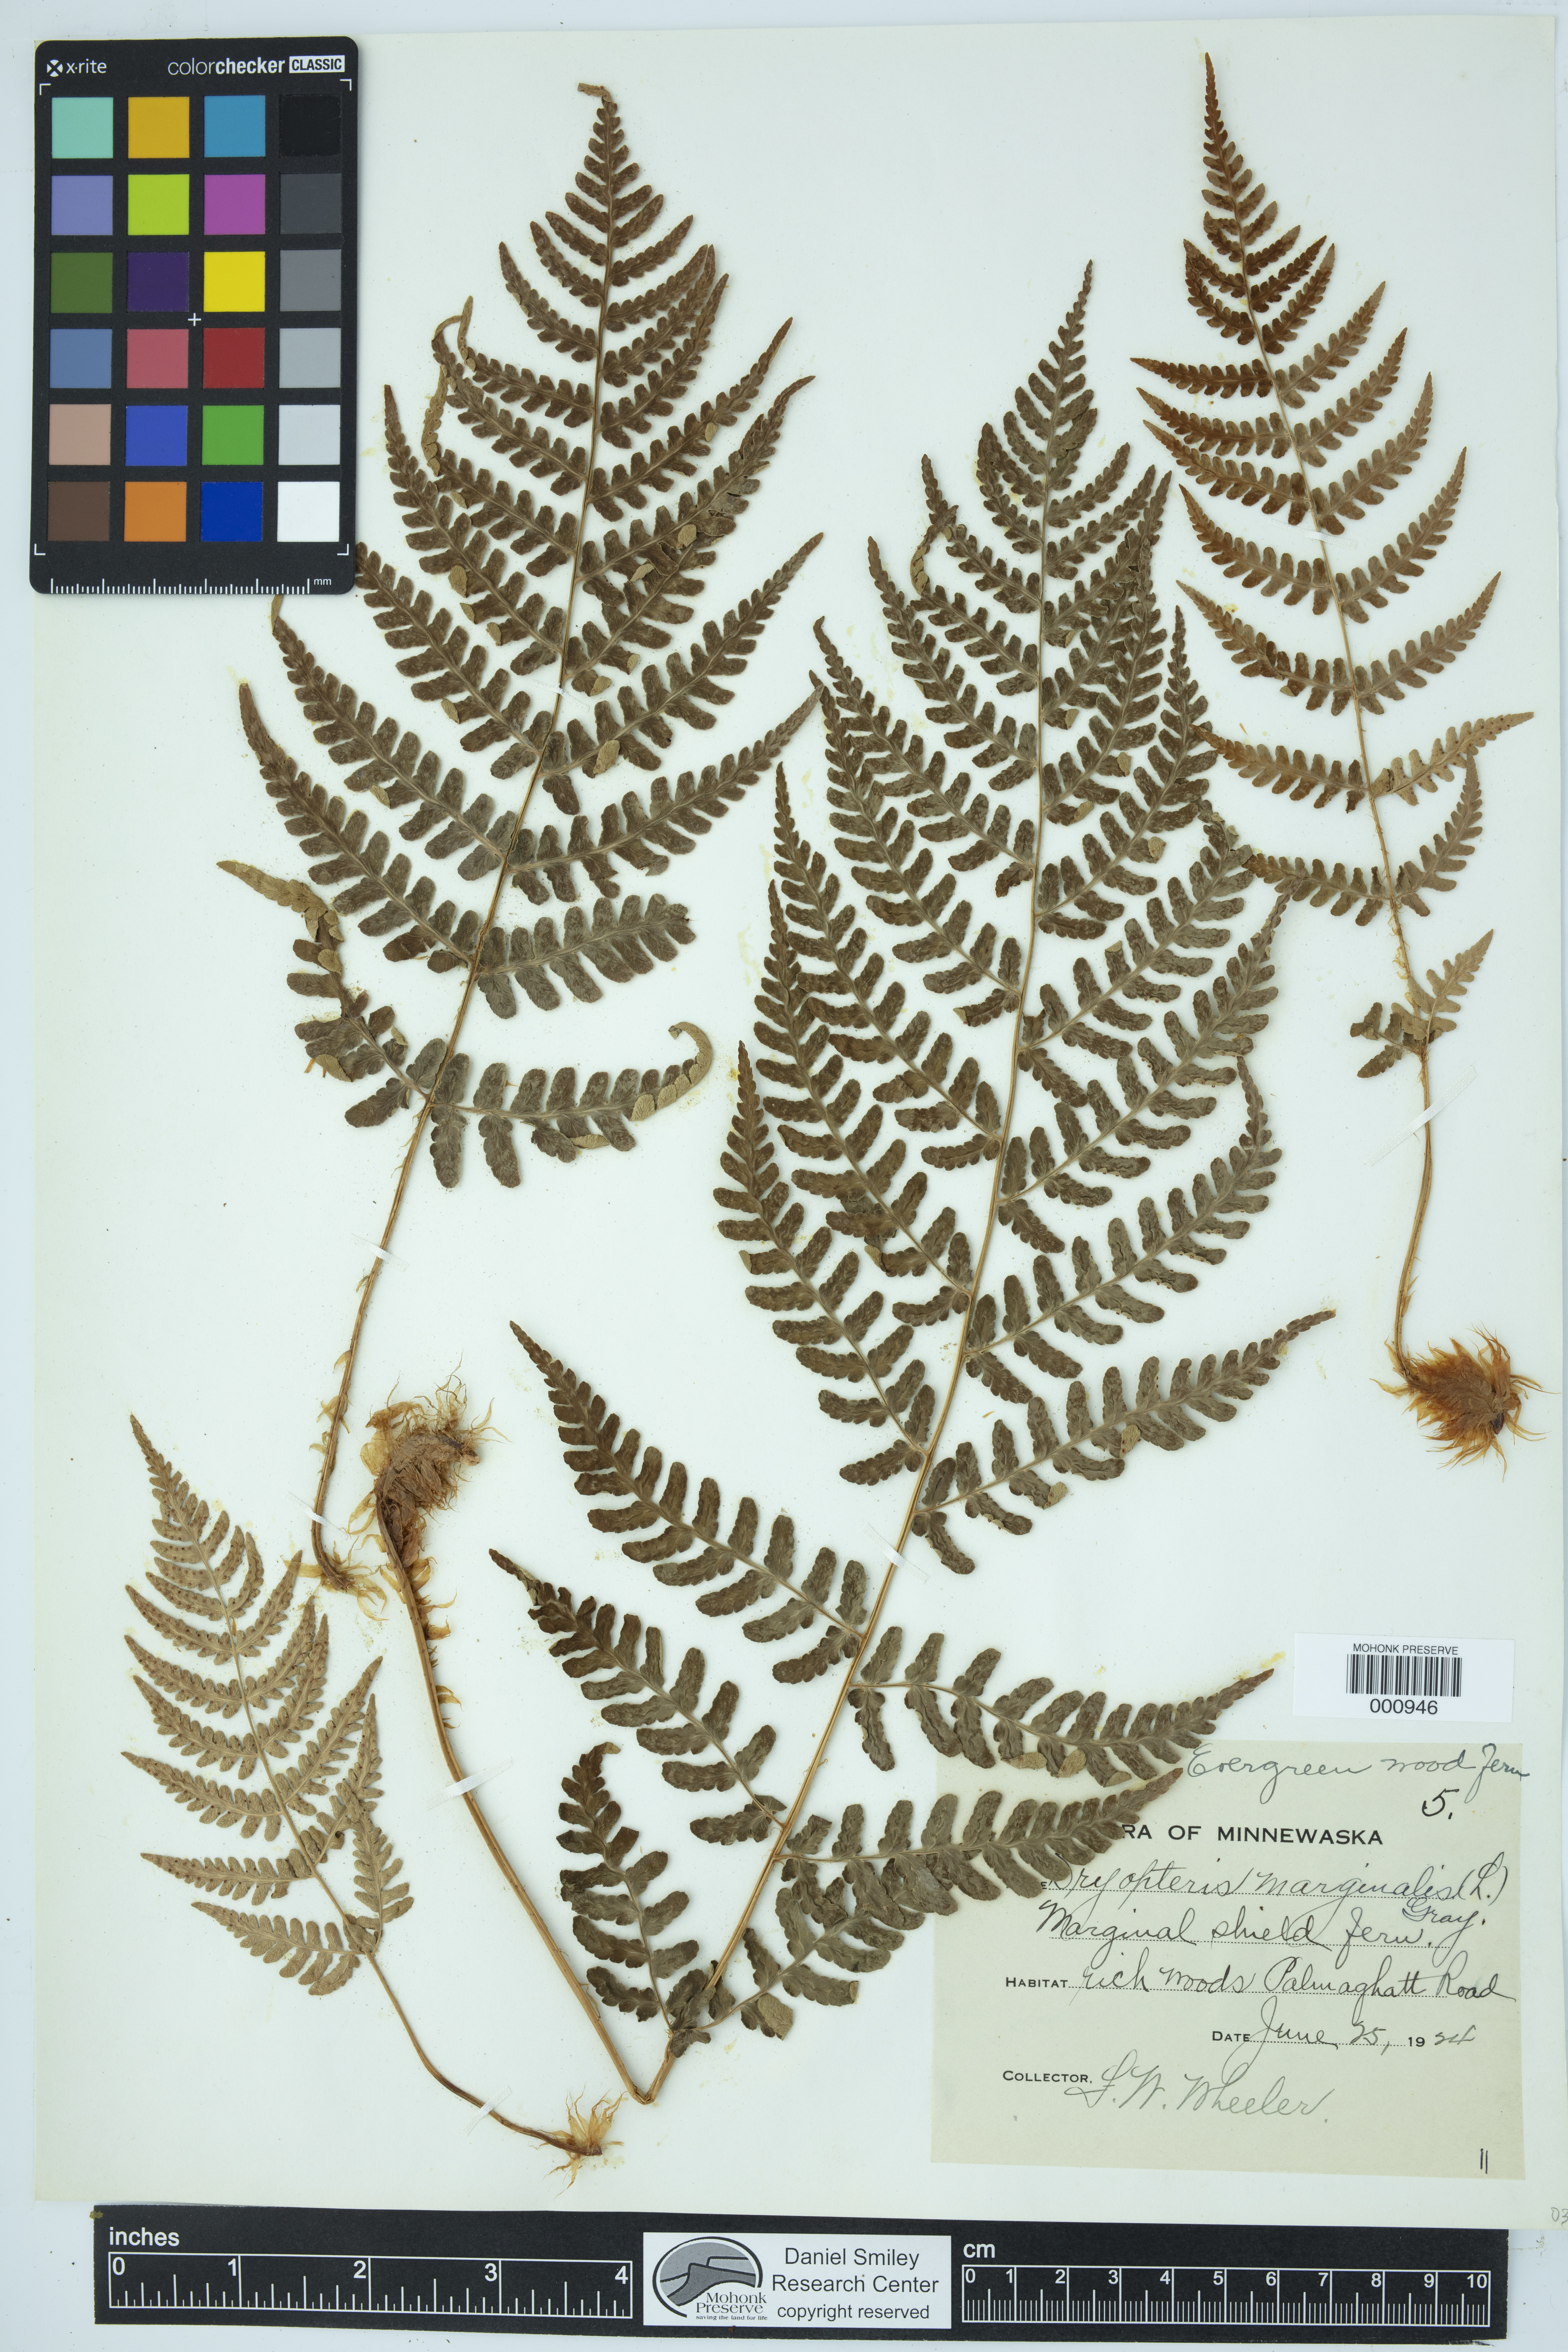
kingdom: Plantae
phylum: Tracheophyta
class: Polypodiopsida
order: Polypodiales
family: Dryopteridaceae
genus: Dryopteris
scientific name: Dryopteris marginalis
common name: Marginal wood fern
